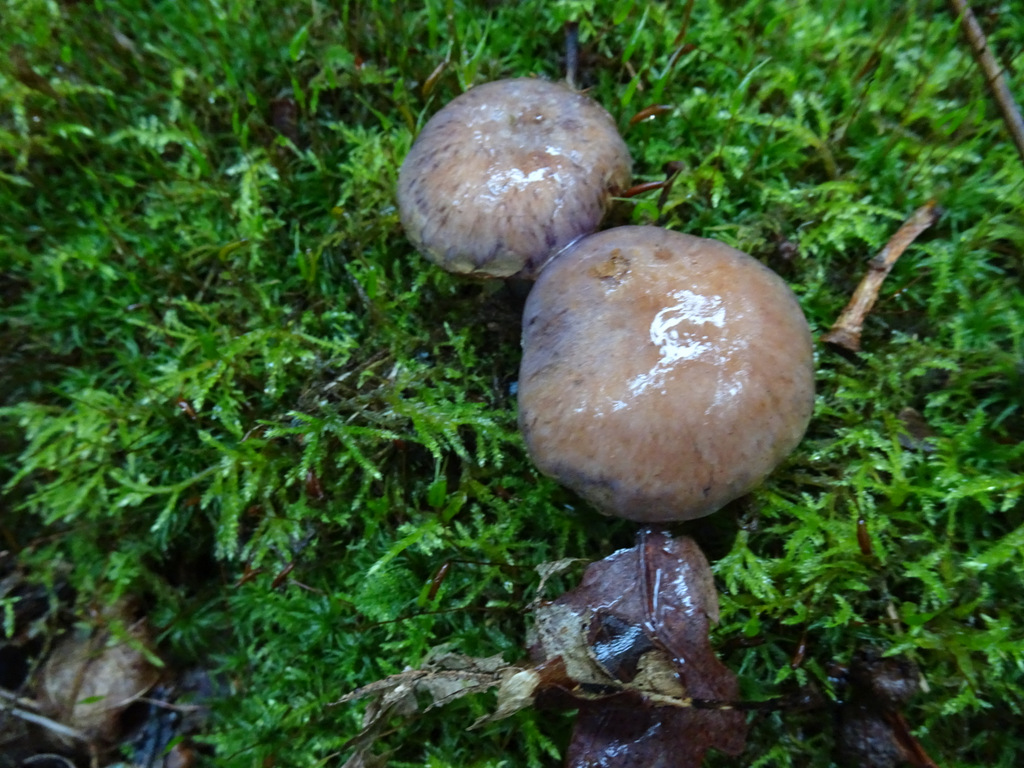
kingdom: Fungi
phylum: Basidiomycota
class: Agaricomycetes
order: Agaricales
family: Cortinariaceae
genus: Cortinarius
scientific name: Cortinarius
